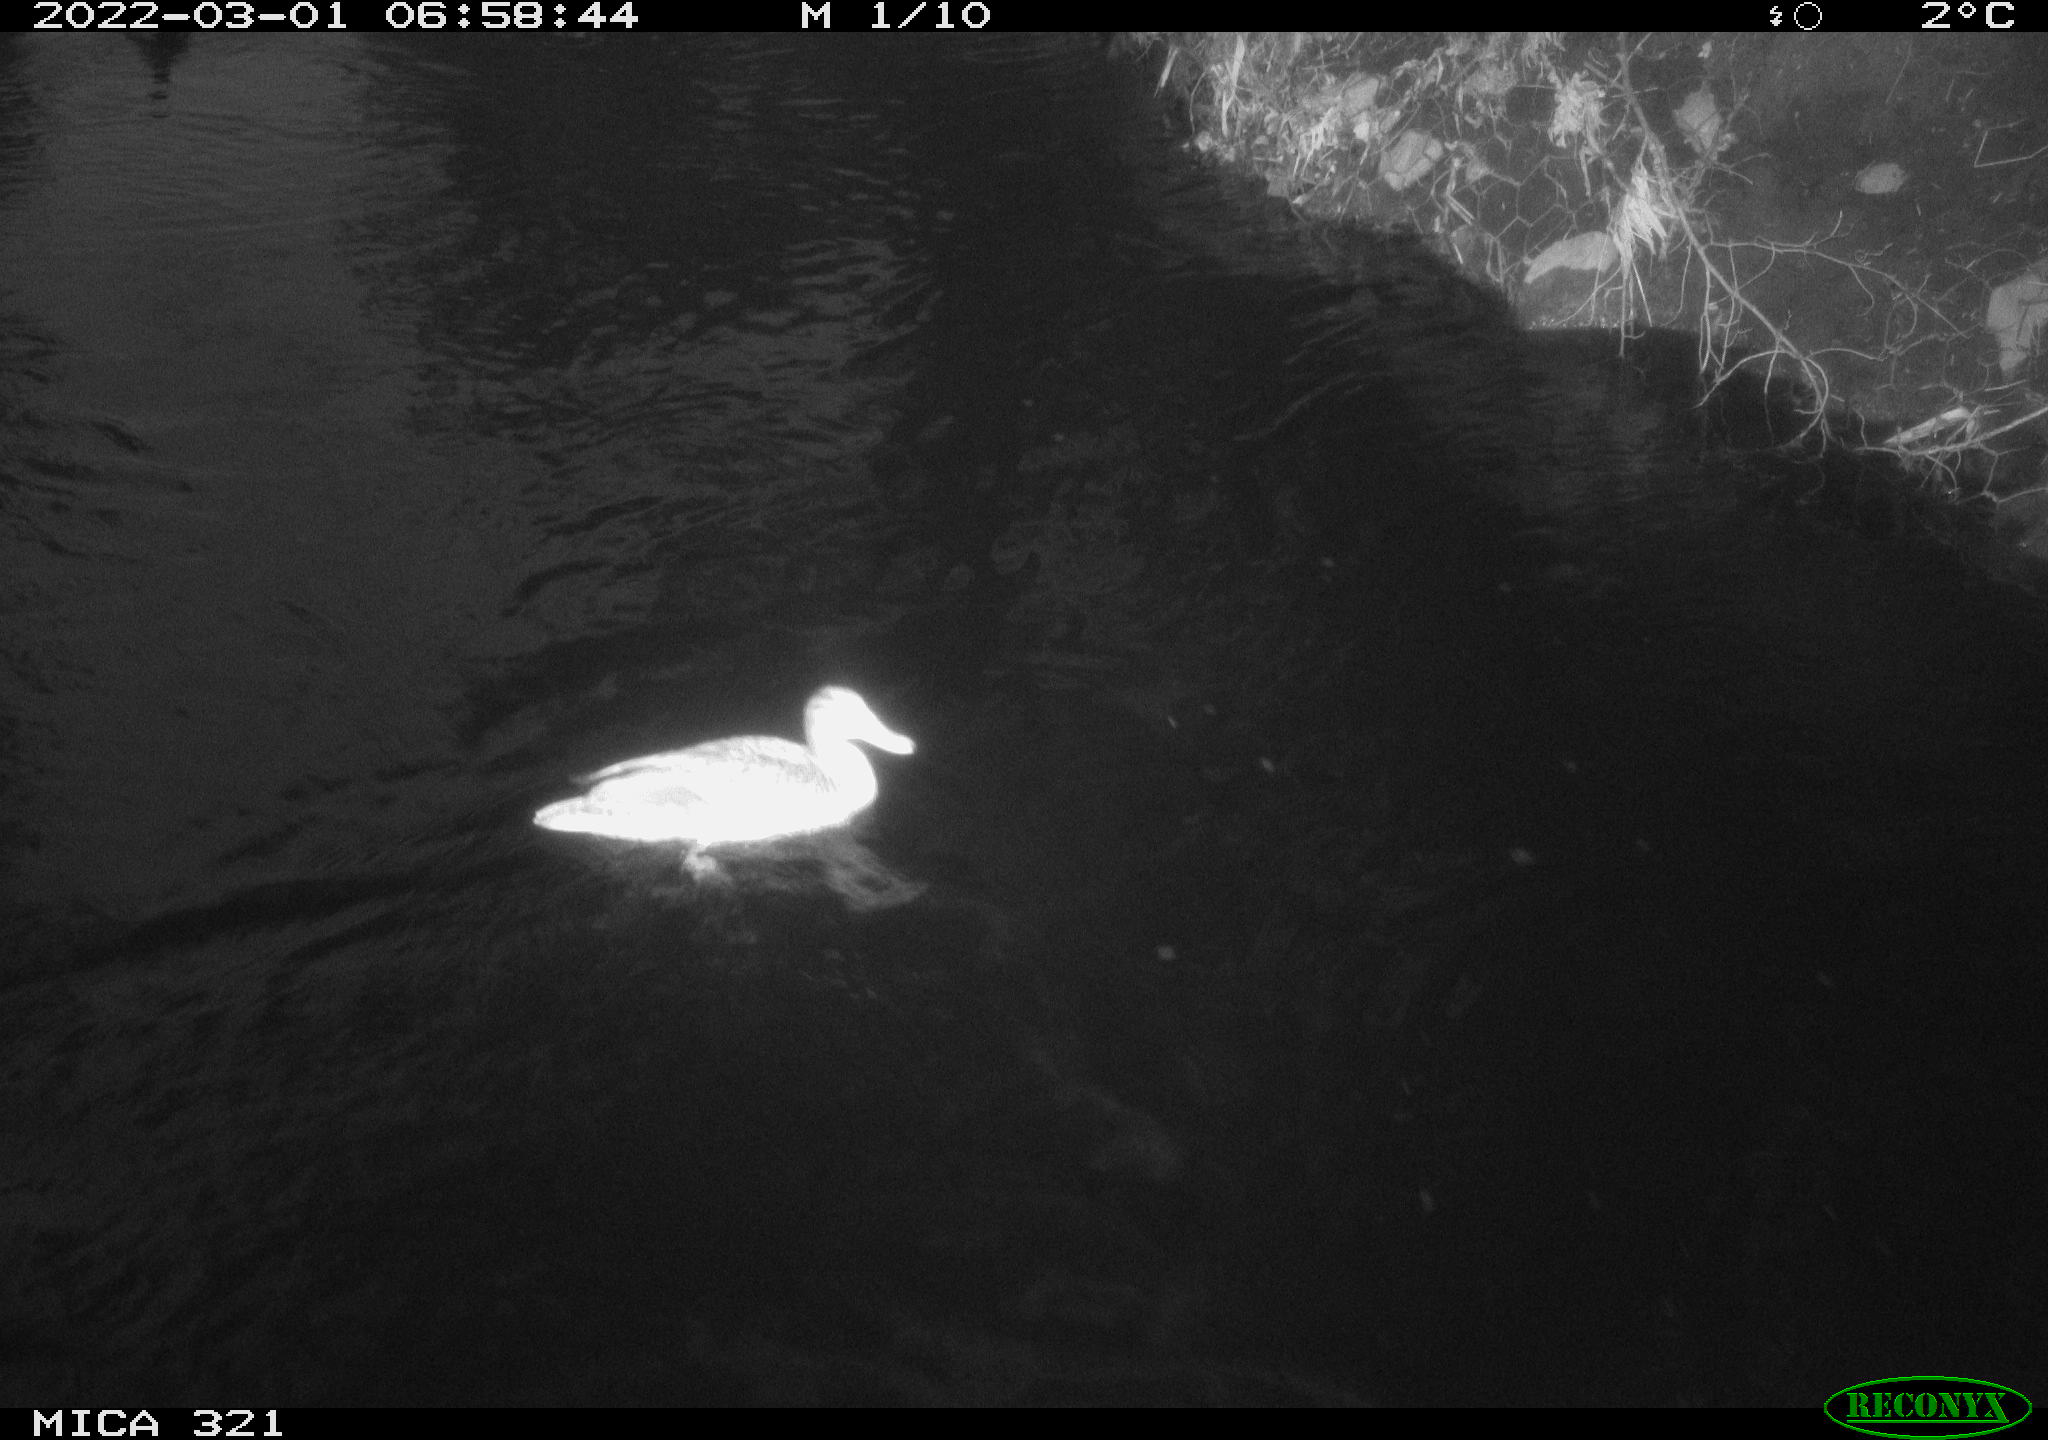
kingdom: Animalia
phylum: Chordata
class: Aves
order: Anseriformes
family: Anatidae
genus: Anas
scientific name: Anas platyrhynchos
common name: Mallard
